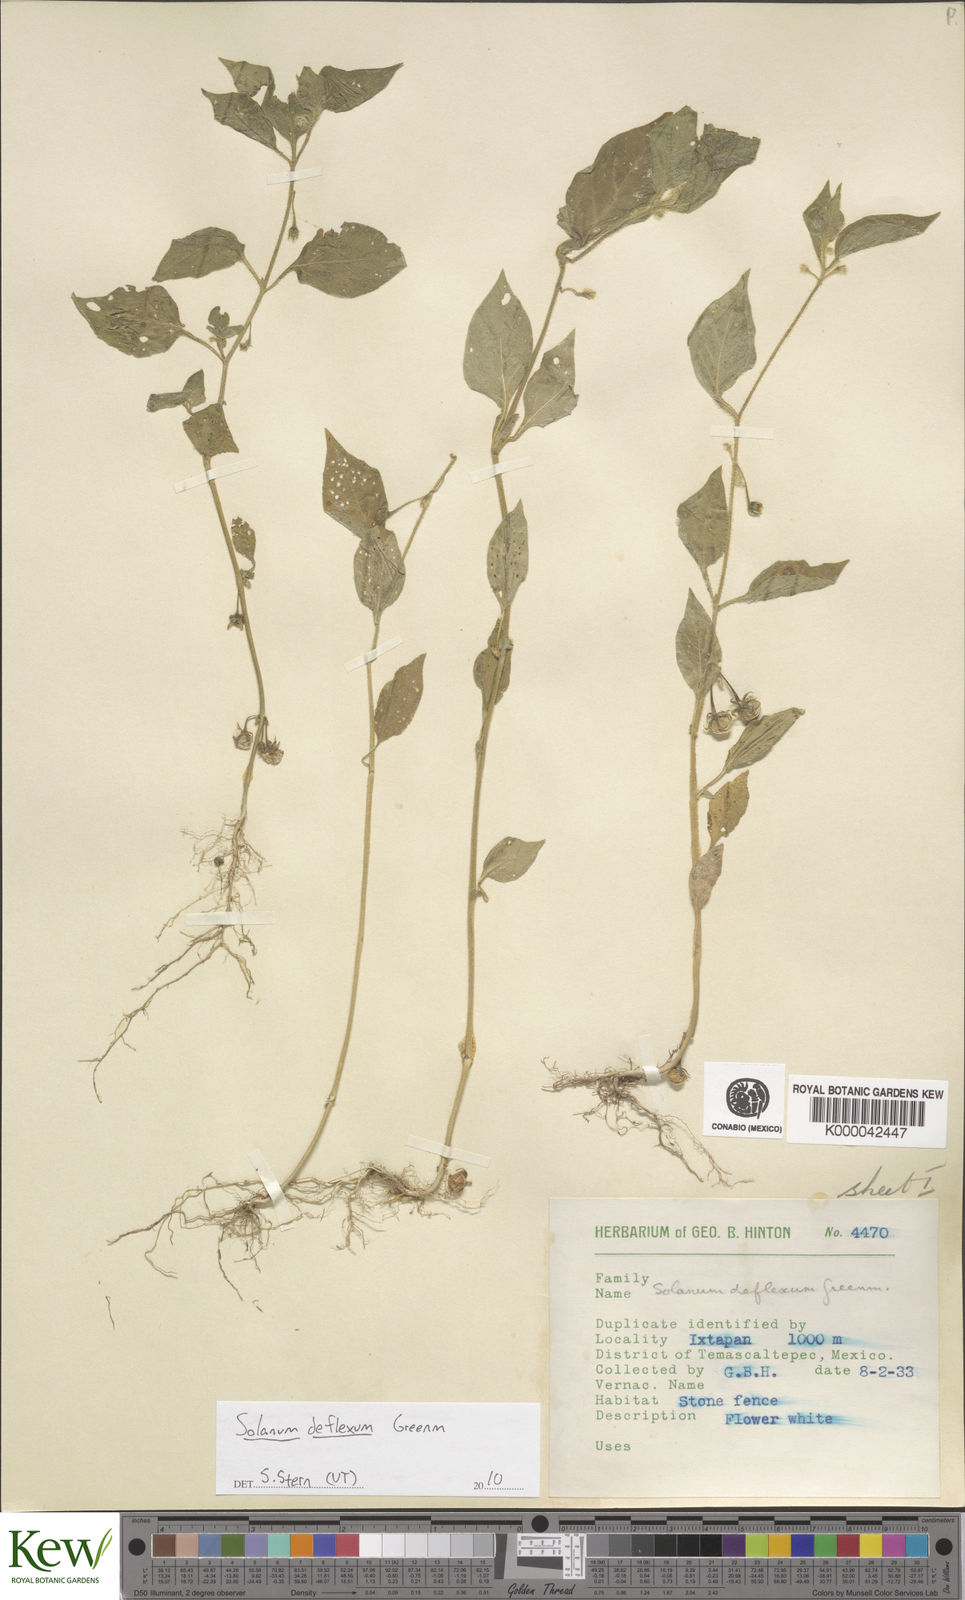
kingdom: Plantae
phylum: Tracheophyta
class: Magnoliopsida
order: Solanales
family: Solanaceae
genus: Solanum
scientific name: Solanum deflexum
